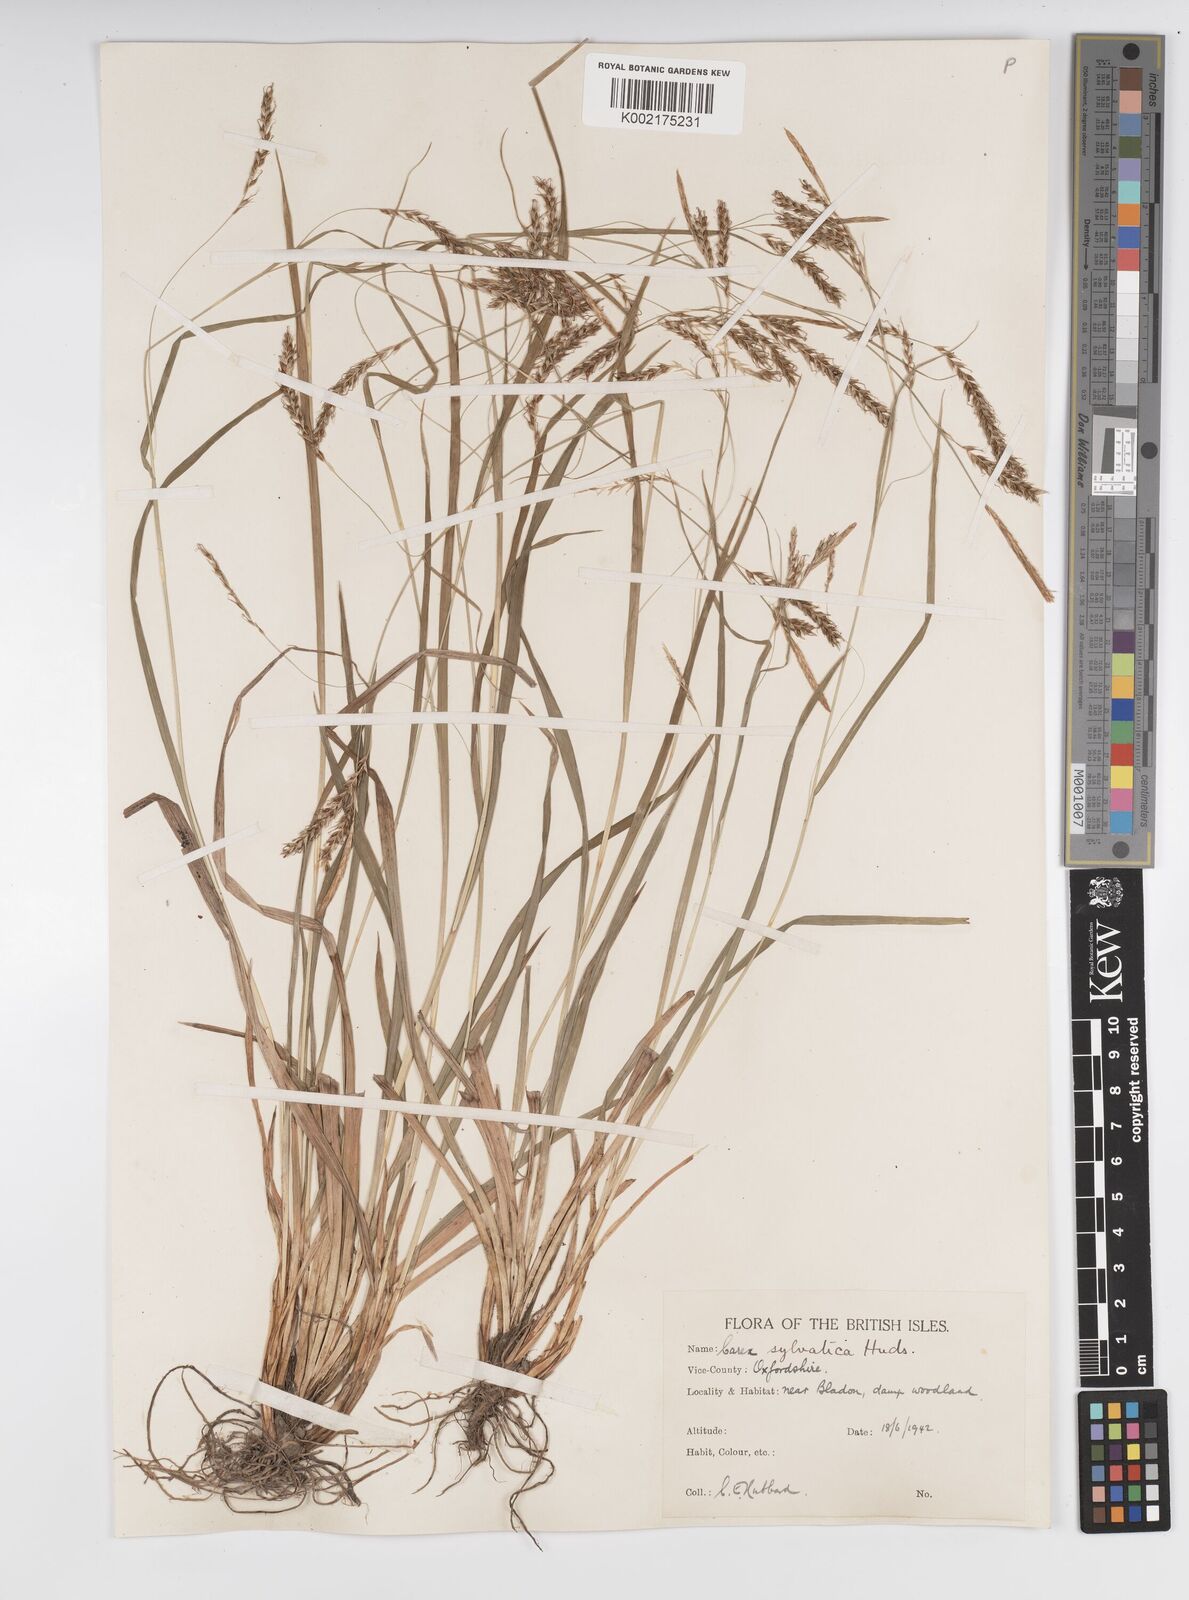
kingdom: Plantae
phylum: Tracheophyta
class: Liliopsida
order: Poales
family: Cyperaceae
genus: Carex
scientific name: Carex sylvatica
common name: Wood-sedge
